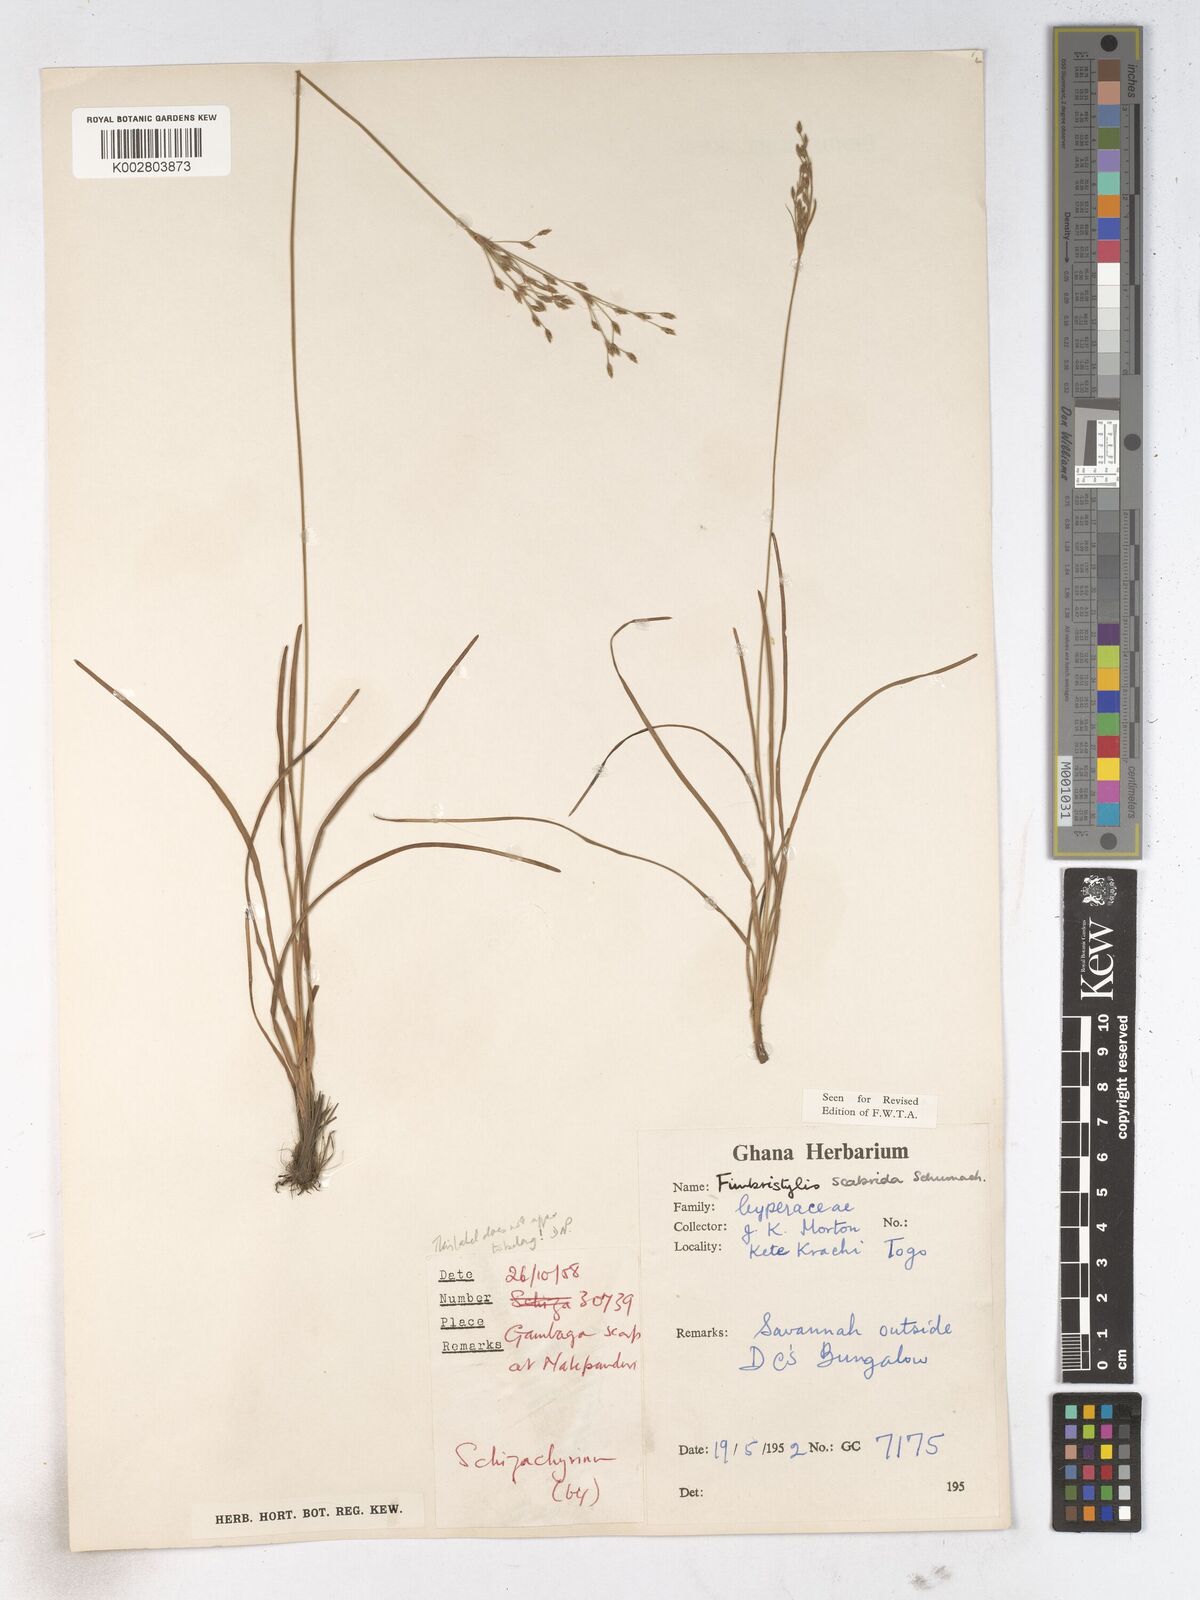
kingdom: Plantae
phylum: Tracheophyta
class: Liliopsida
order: Poales
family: Cyperaceae
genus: Fimbristylis
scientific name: Fimbristylis scabrida
